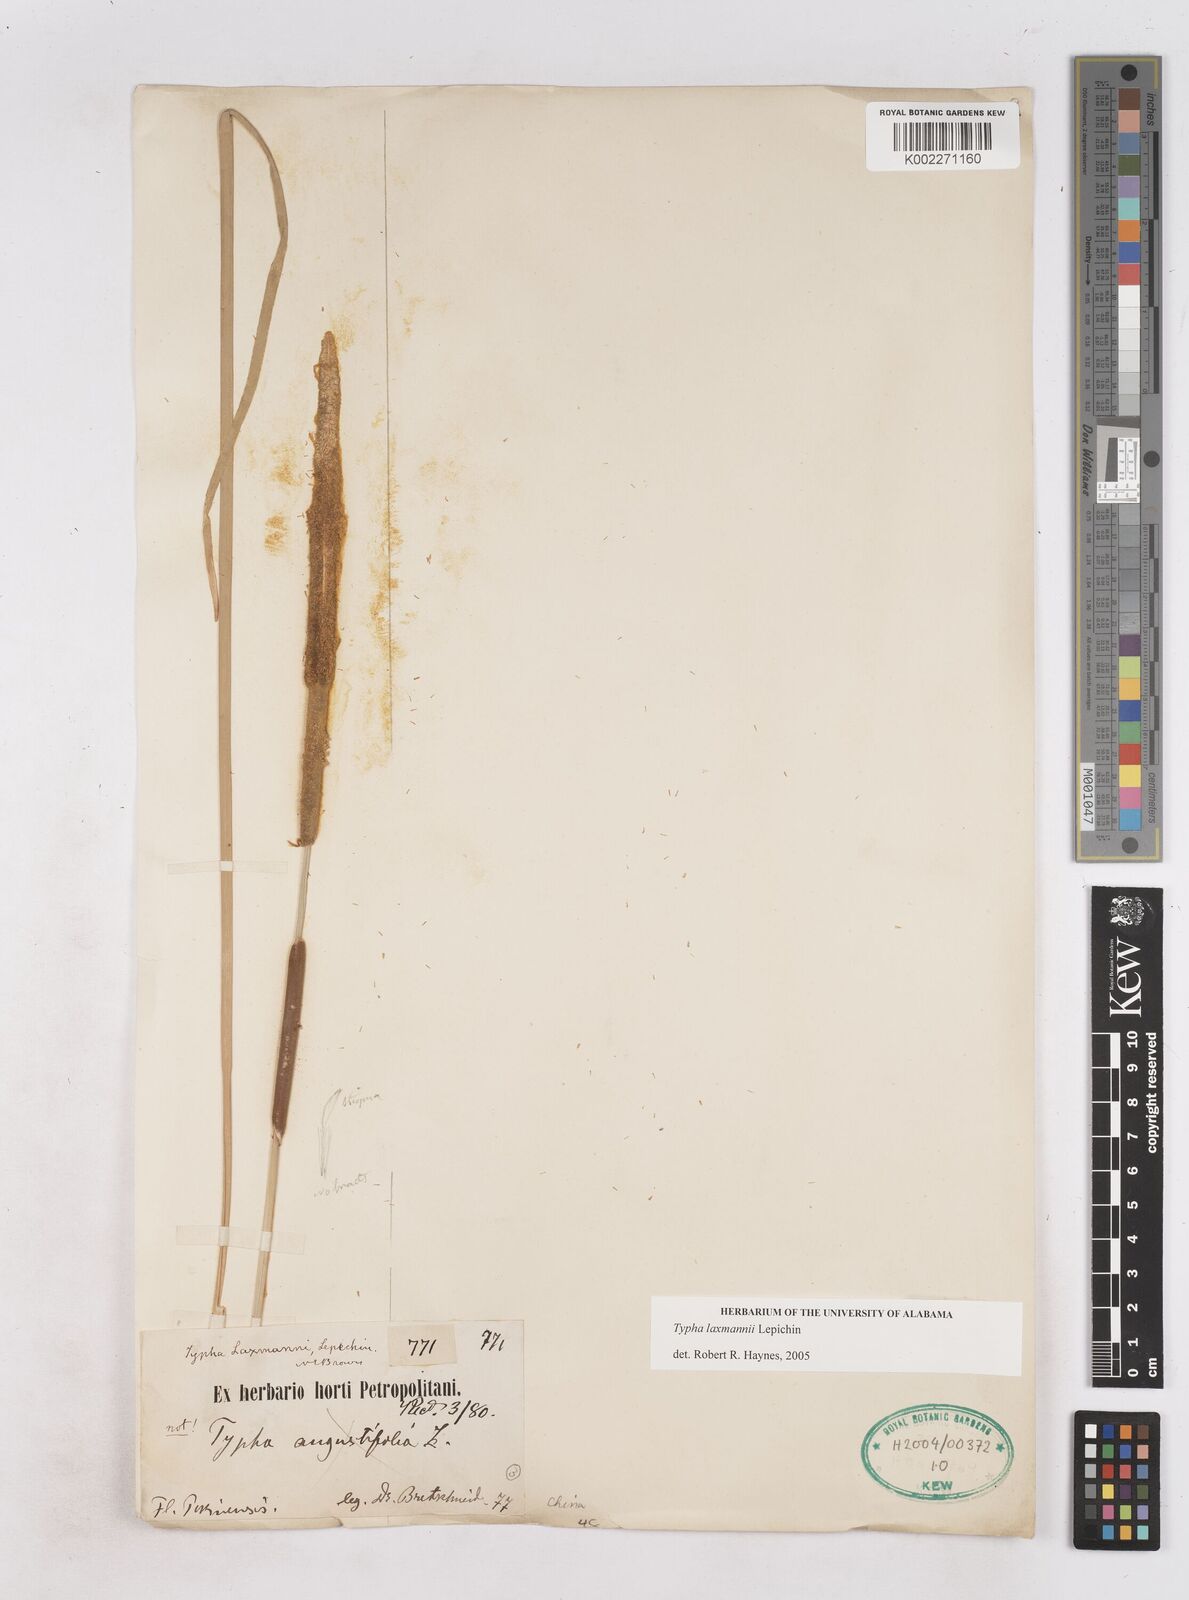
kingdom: Plantae
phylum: Tracheophyta
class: Liliopsida
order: Poales
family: Typhaceae
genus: Typha
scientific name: Typha laxmannii
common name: Laxman’s bulrush
